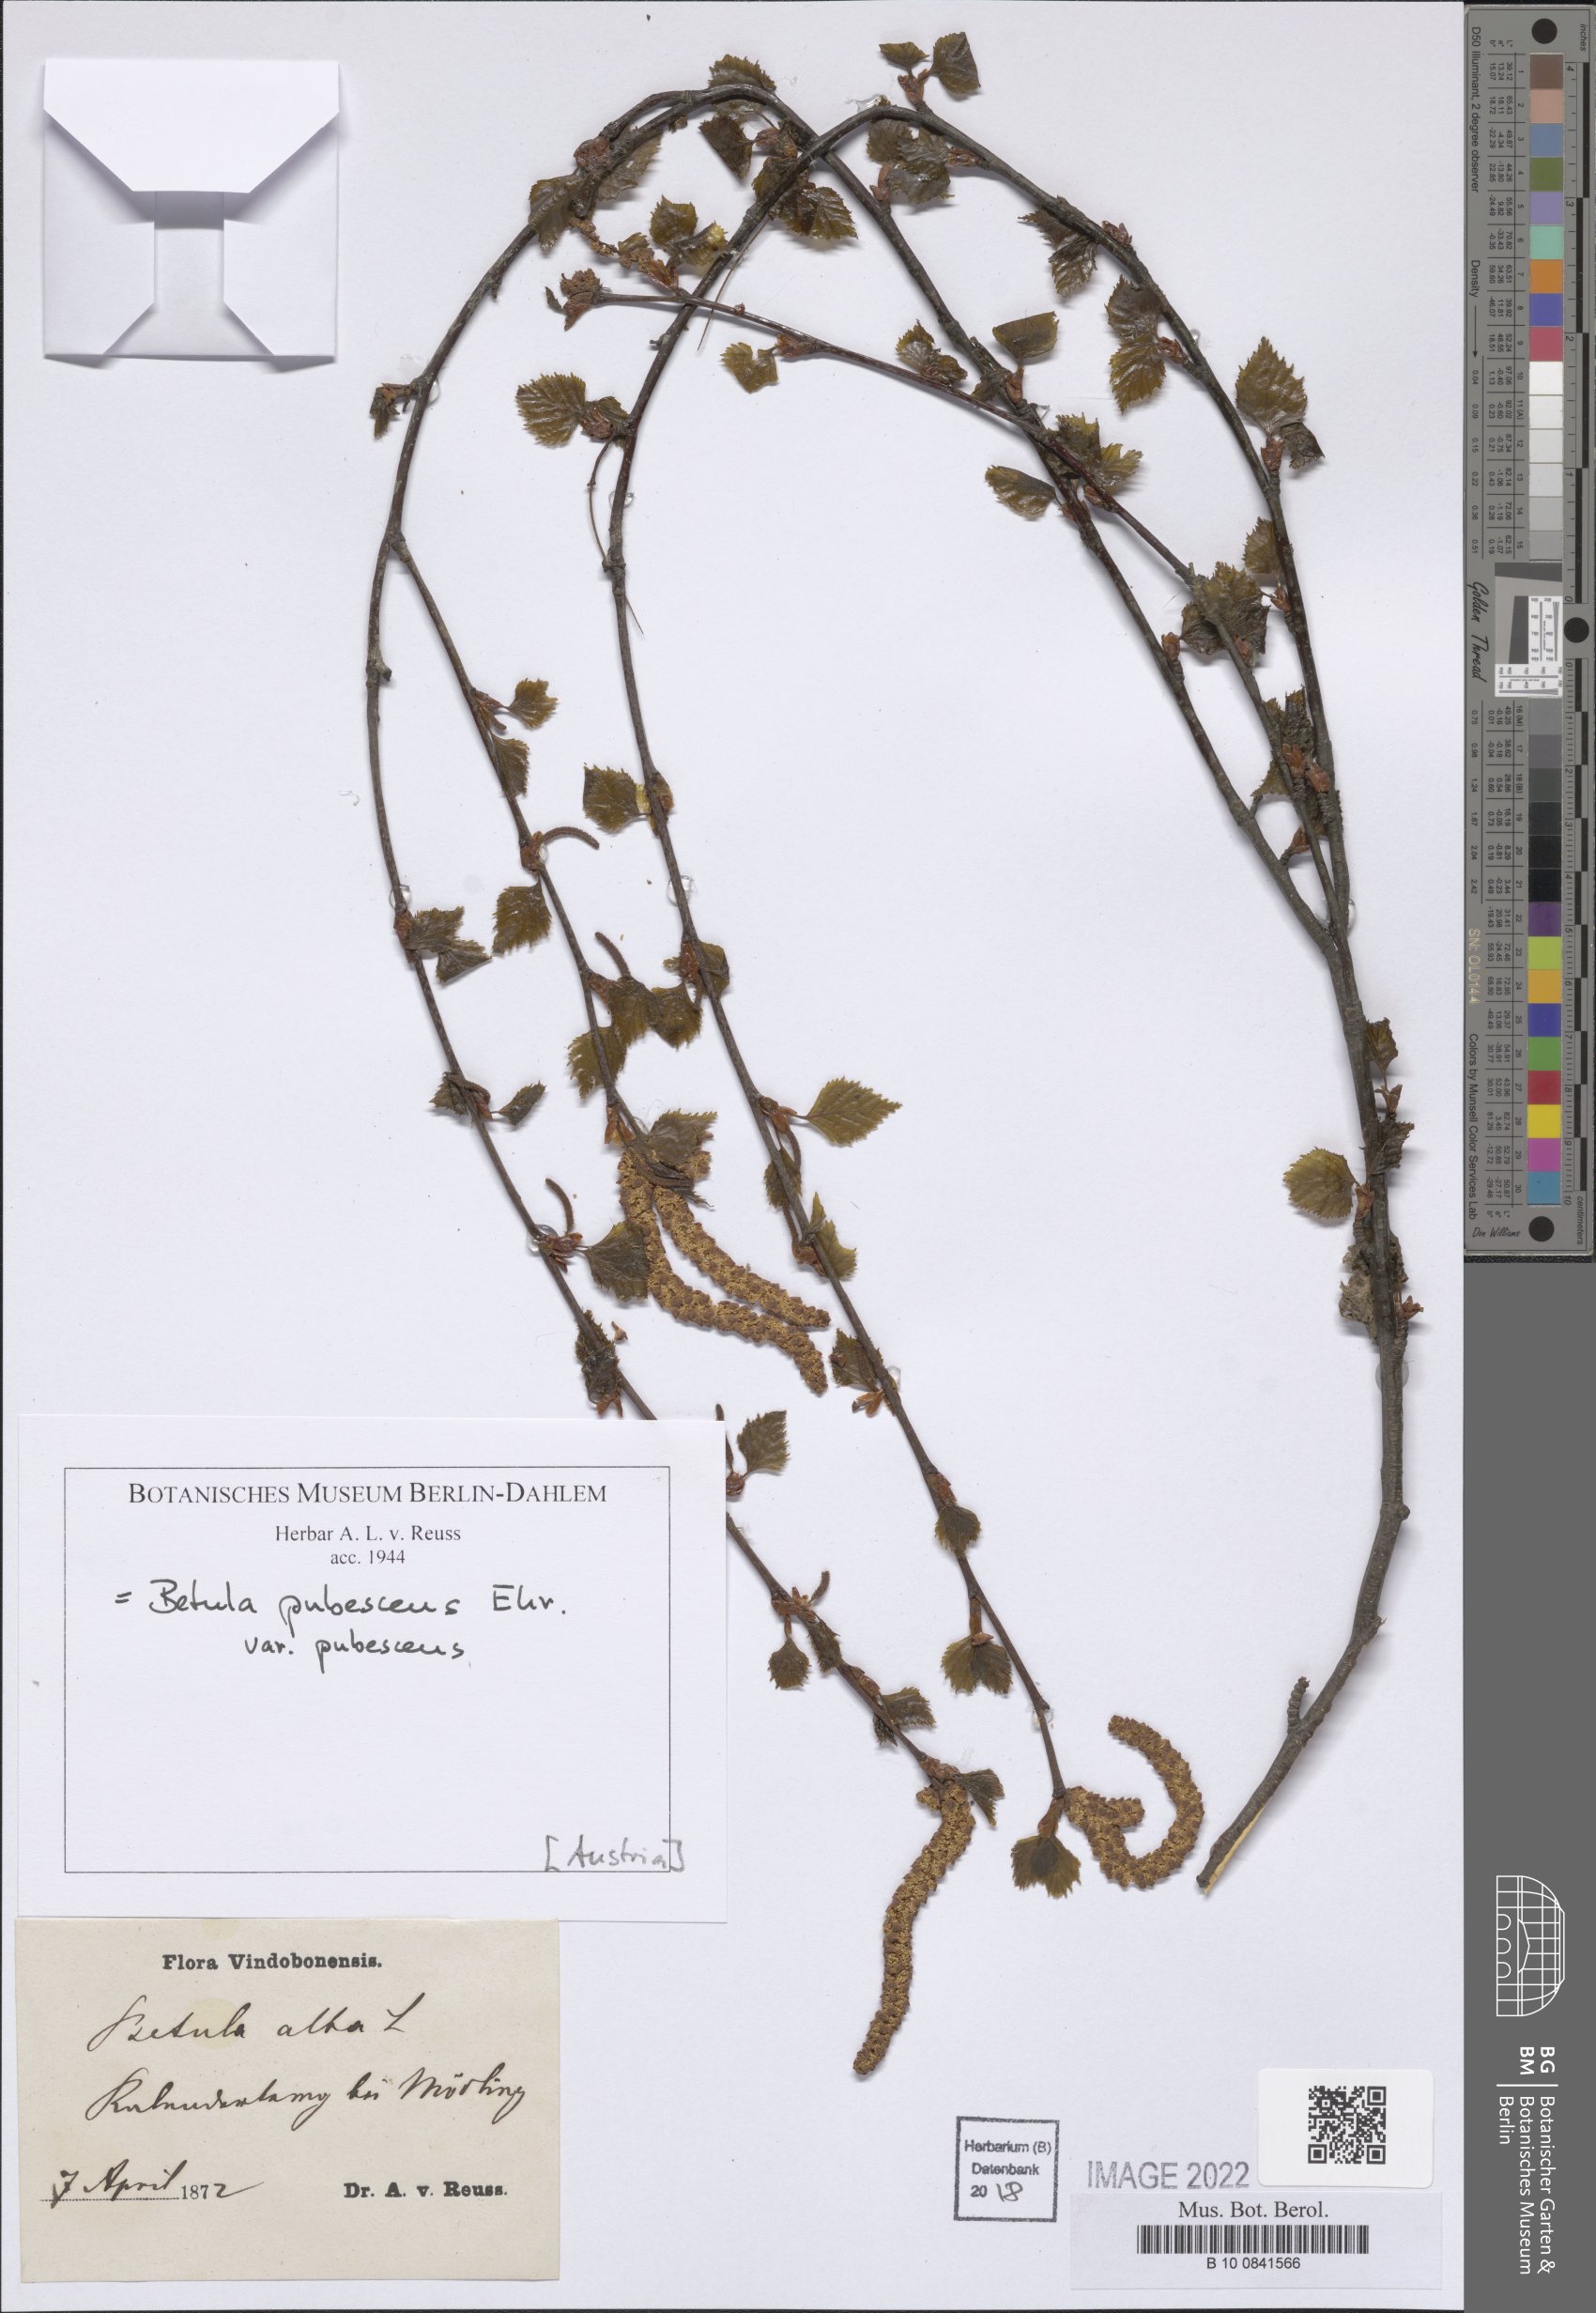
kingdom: Plantae
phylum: Tracheophyta
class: Magnoliopsida
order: Fagales
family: Betulaceae
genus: Betula
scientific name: Betula pubescens
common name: Downy birch
